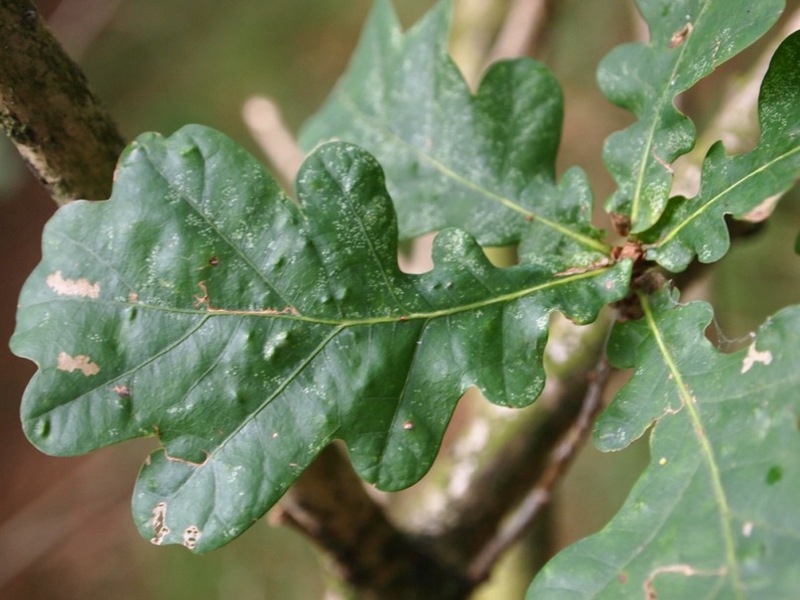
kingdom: Animalia
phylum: Arthropoda
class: Insecta
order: Hemiptera
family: Triozidae
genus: Trioza
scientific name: Trioza remota
